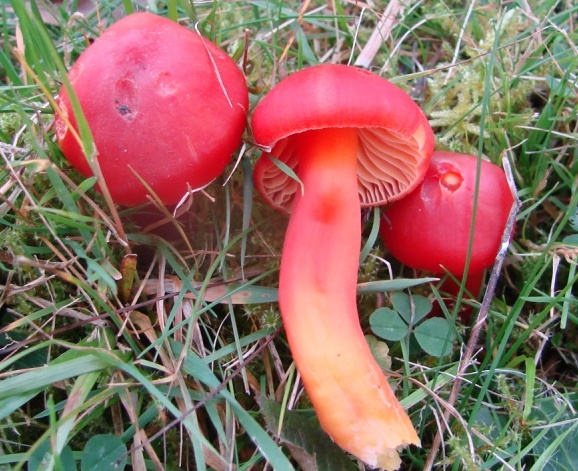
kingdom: Fungi
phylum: Basidiomycota
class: Agaricomycetes
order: Agaricales
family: Hygrophoraceae
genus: Hygrocybe
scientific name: Hygrocybe coccinea
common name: cinnober-vokshat
